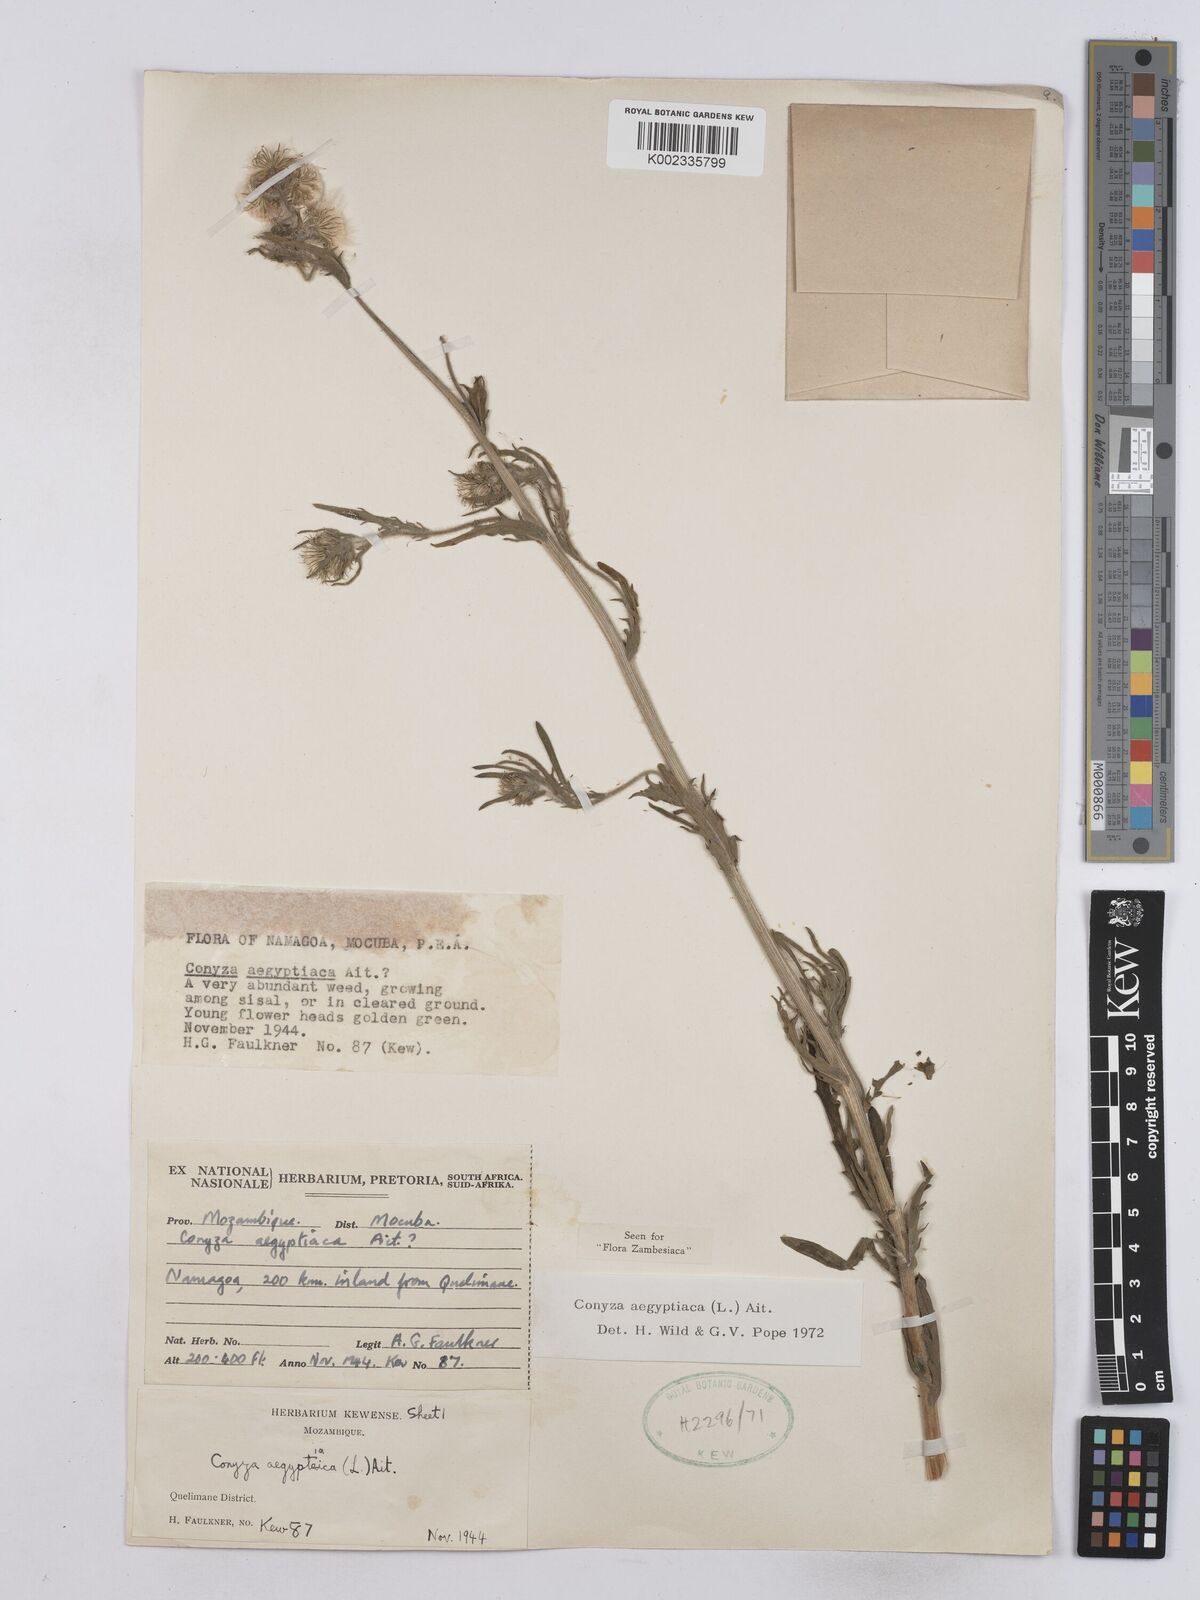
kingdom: Plantae
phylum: Tracheophyta
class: Magnoliopsida
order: Asterales
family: Asteraceae
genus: Nidorella
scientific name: Nidorella aegyptiaca
